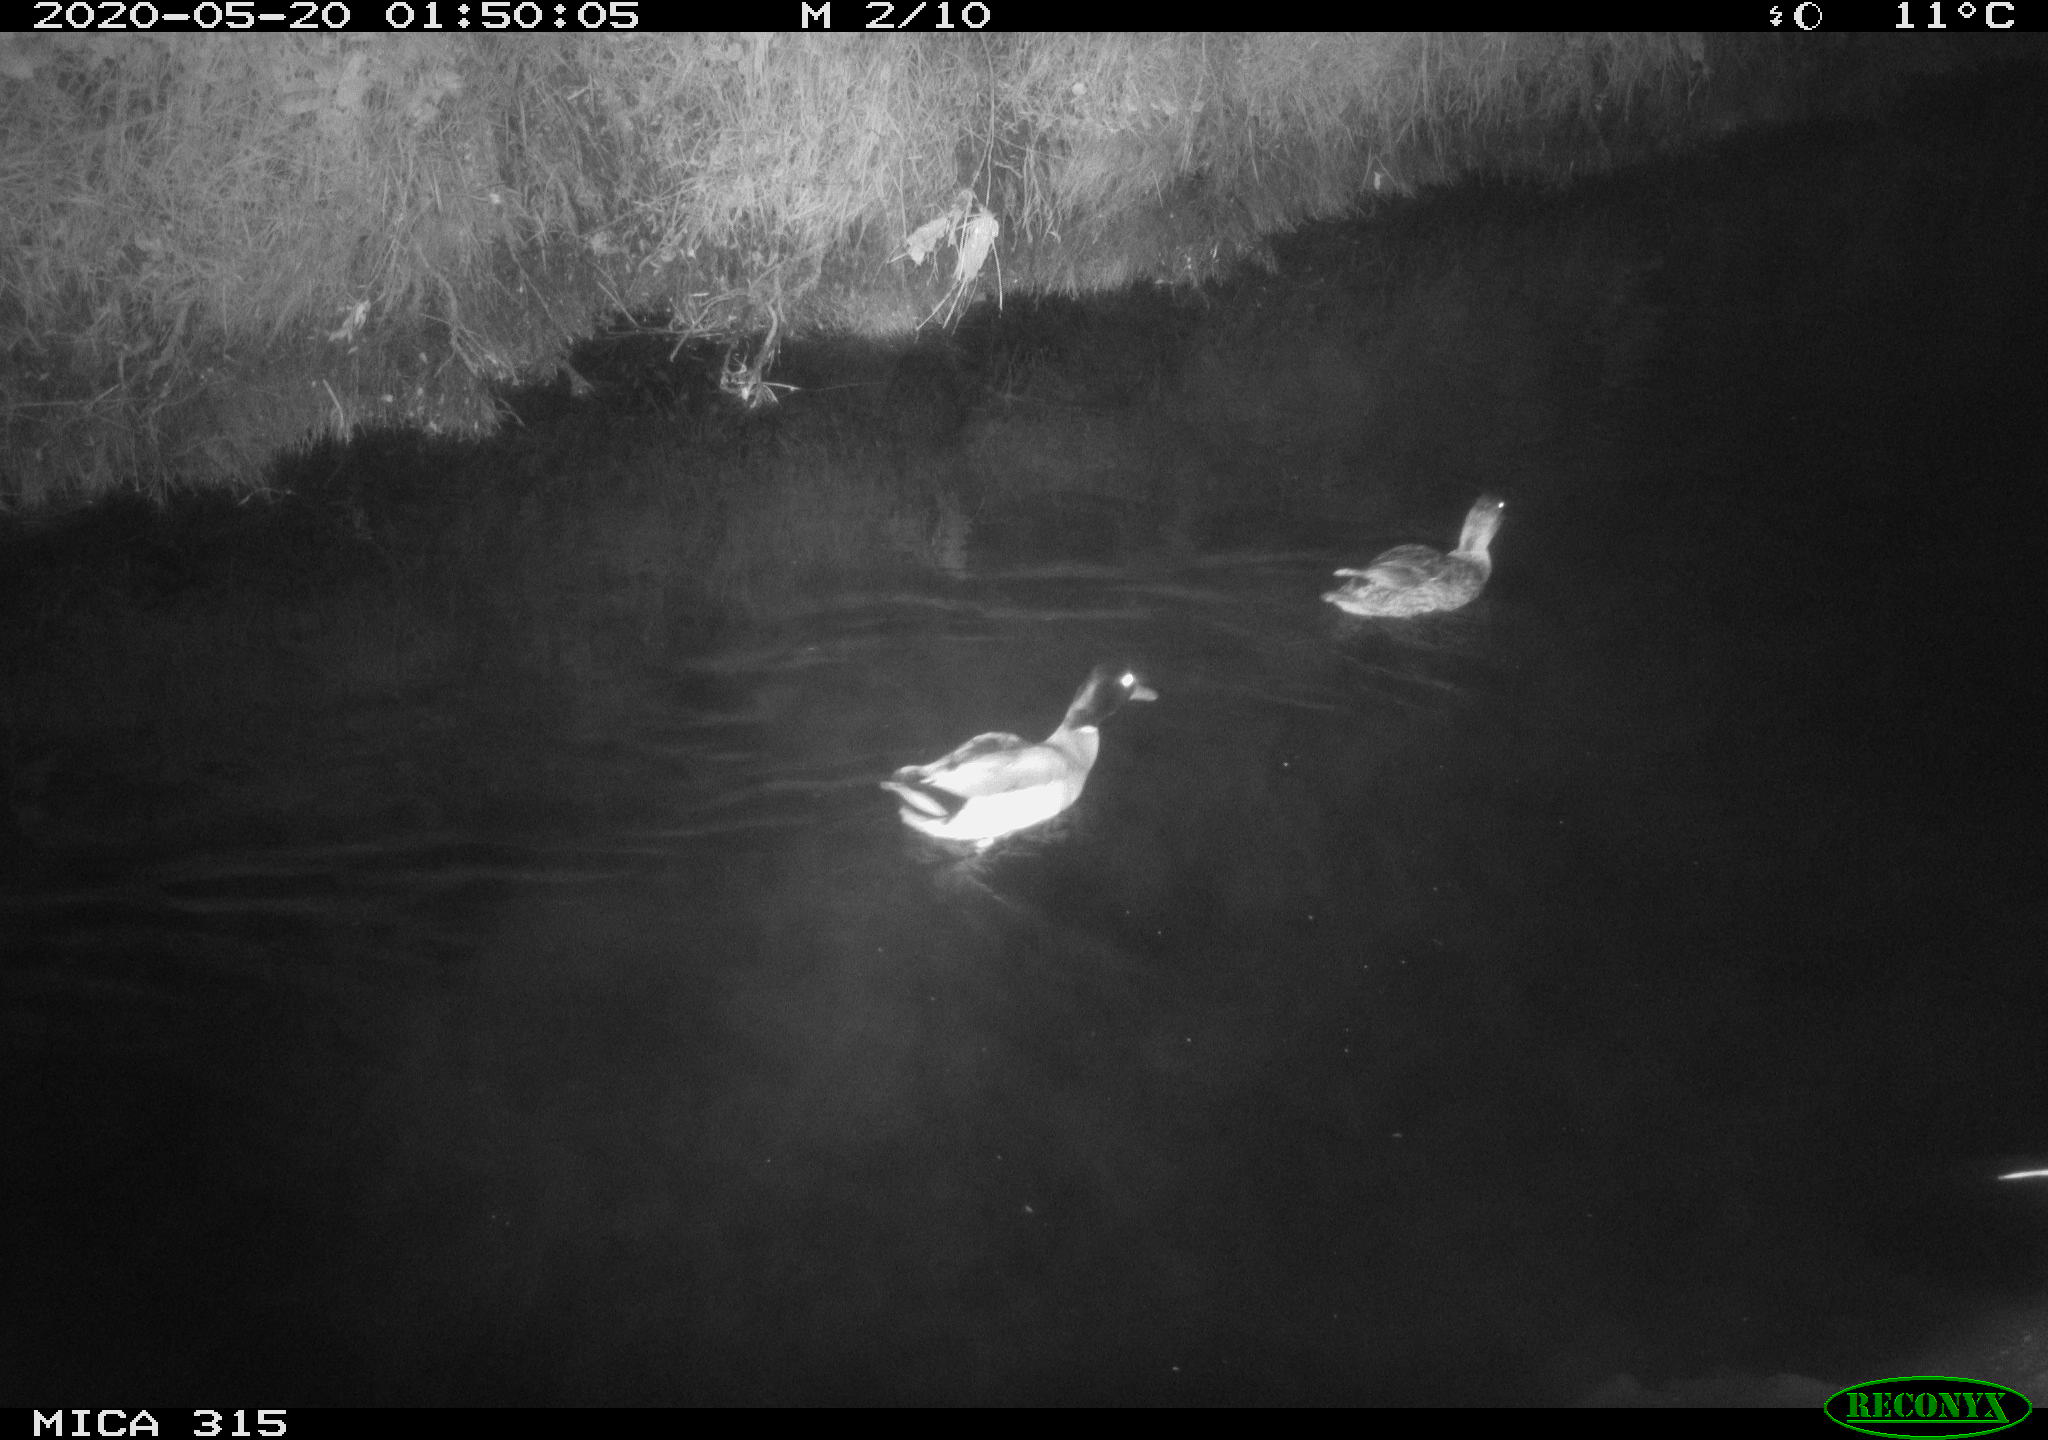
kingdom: Animalia
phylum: Chordata
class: Aves
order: Anseriformes
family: Anatidae
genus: Anas
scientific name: Anas platyrhynchos
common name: Mallard
